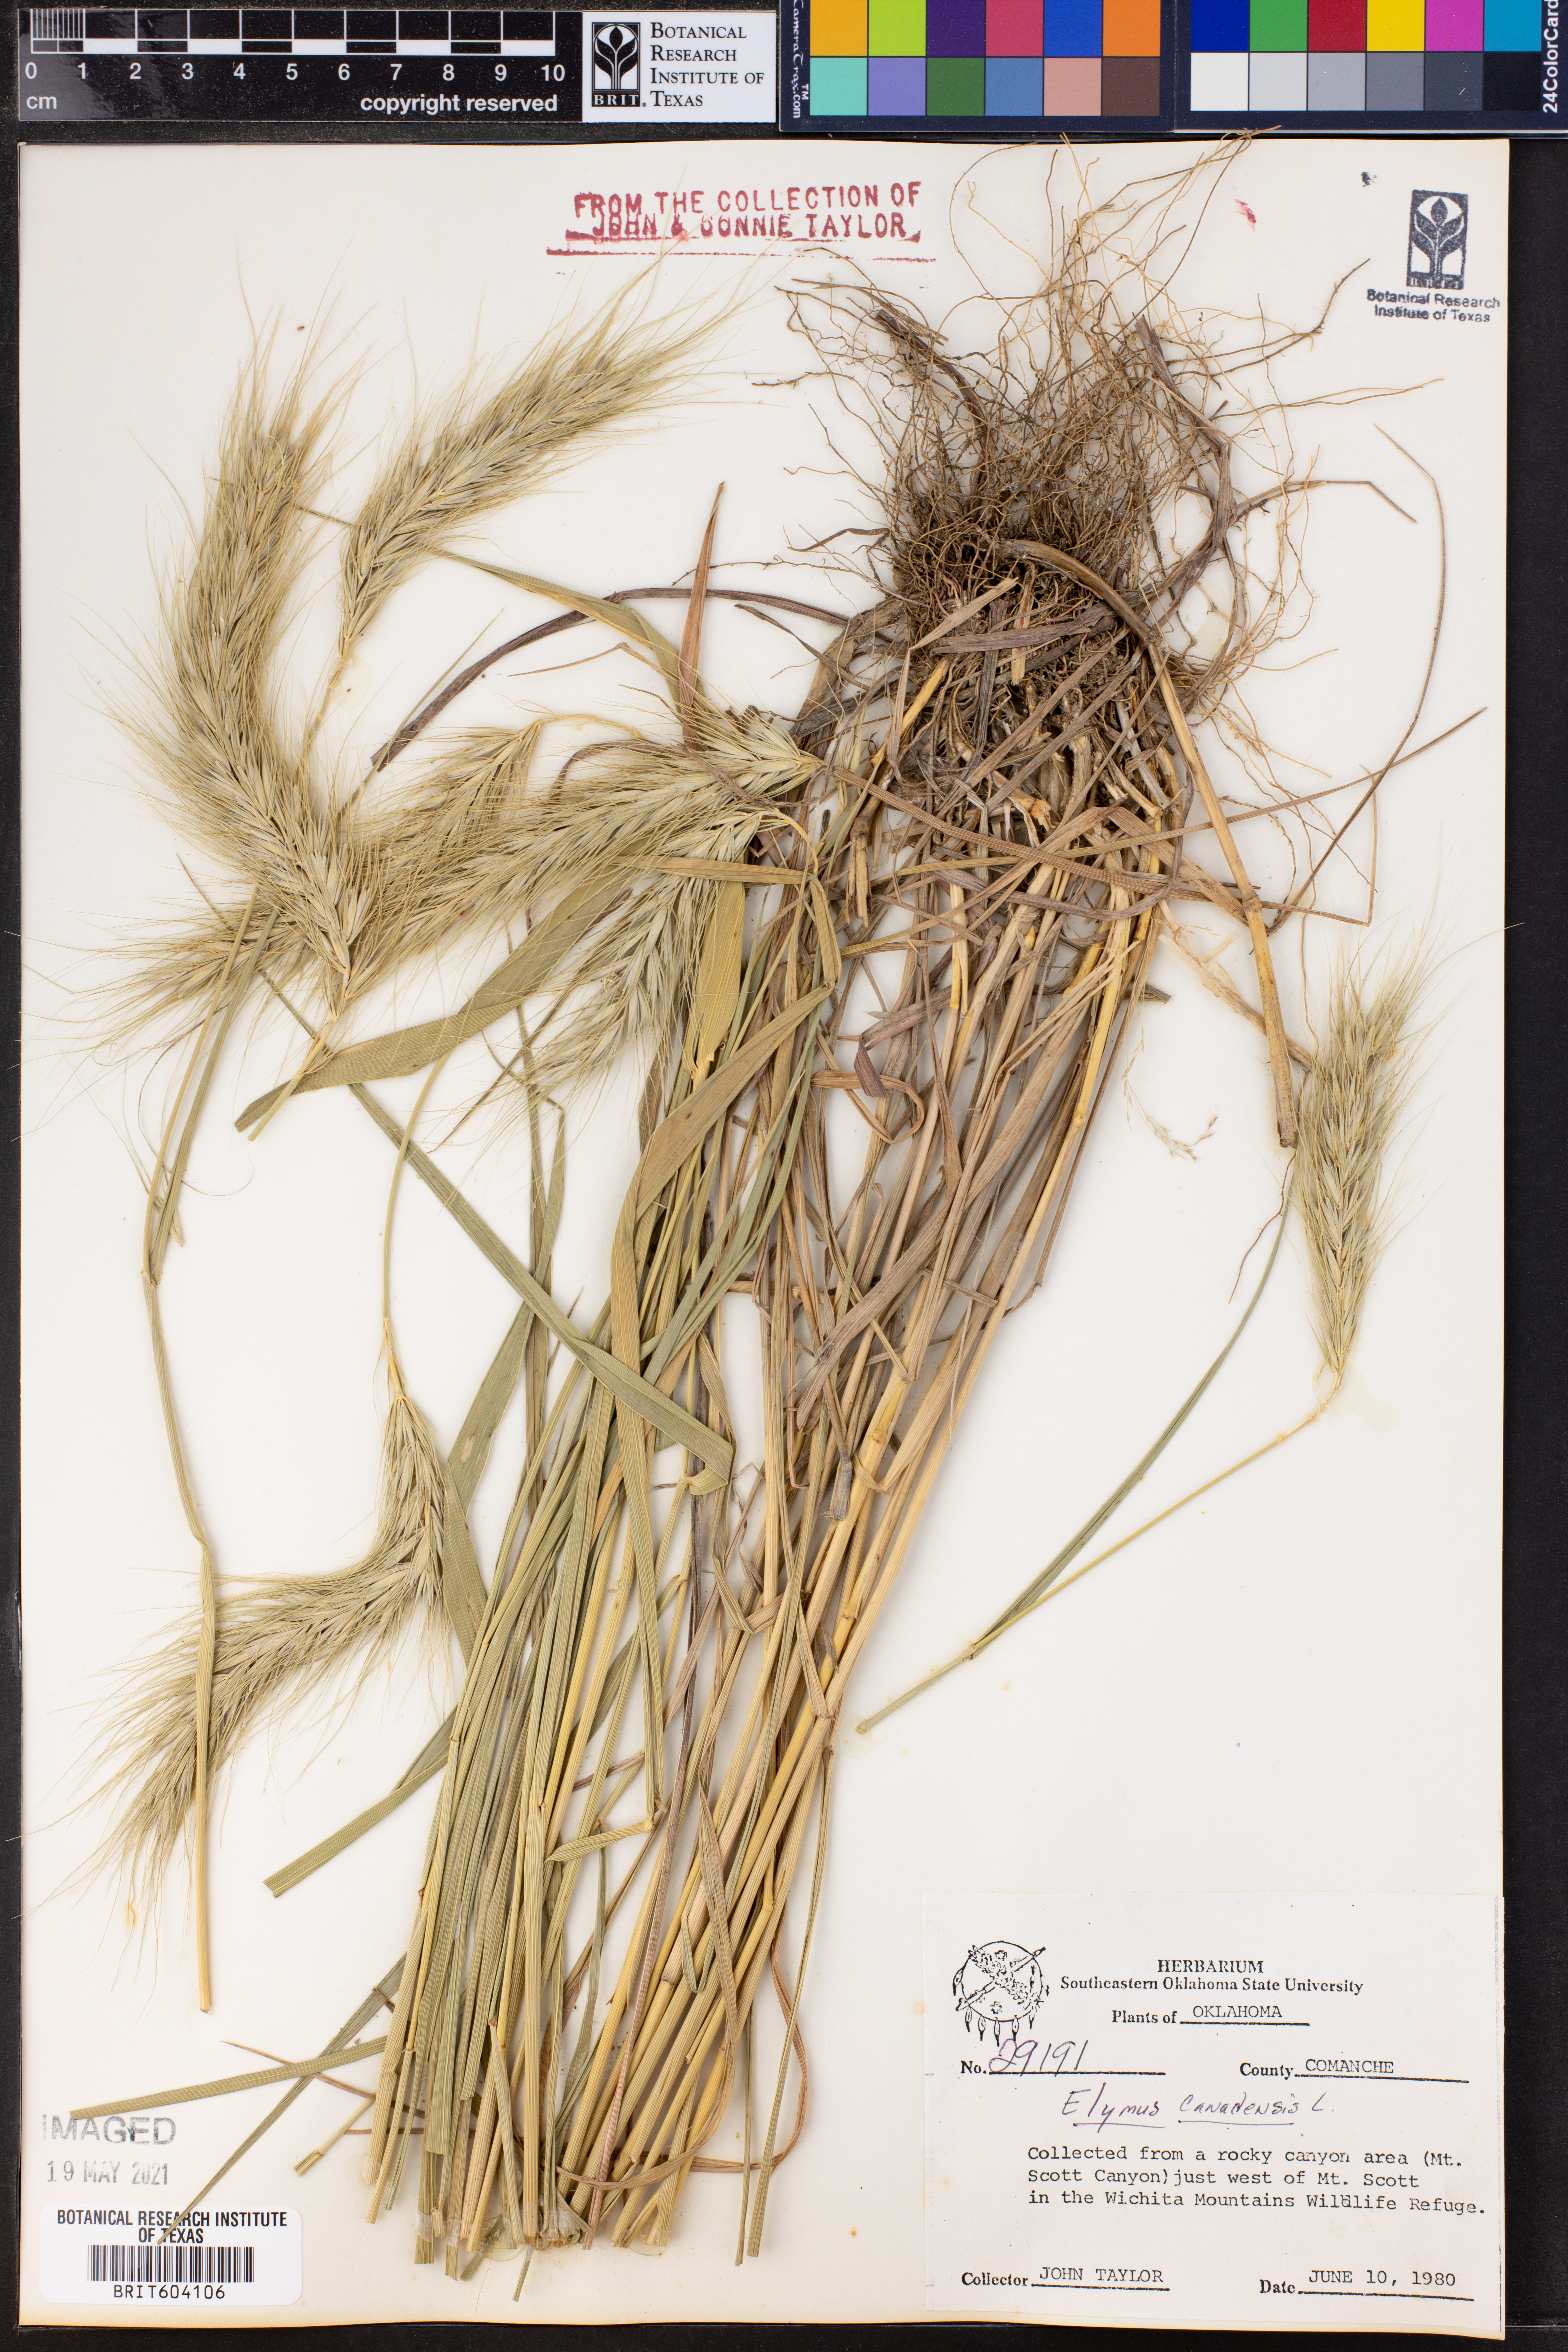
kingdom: Plantae
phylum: Tracheophyta
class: Liliopsida
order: Poales
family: Poaceae
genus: Elymus
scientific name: Elymus canadensis
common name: Canada wild rye
